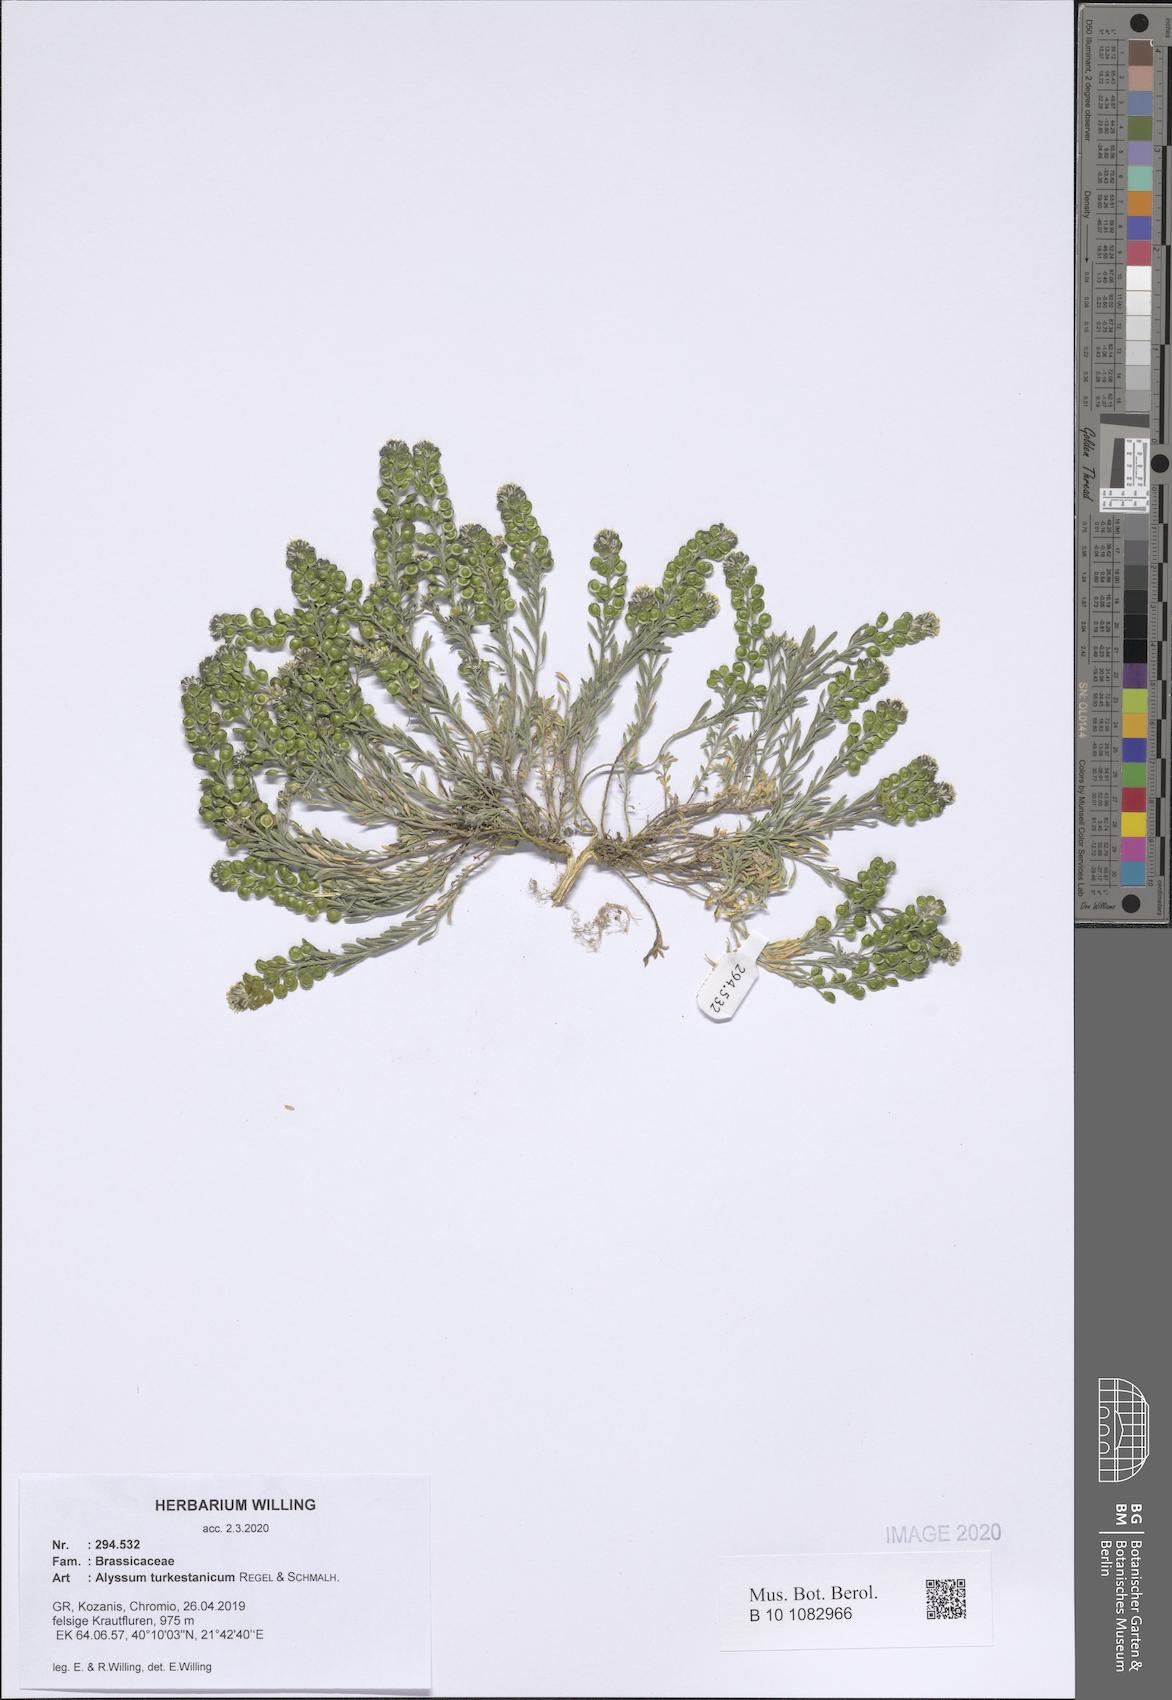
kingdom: Plantae
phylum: Tracheophyta
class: Magnoliopsida
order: Brassicales
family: Brassicaceae
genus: Alyssum
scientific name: Alyssum turkestanicum
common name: Desert alyssum
